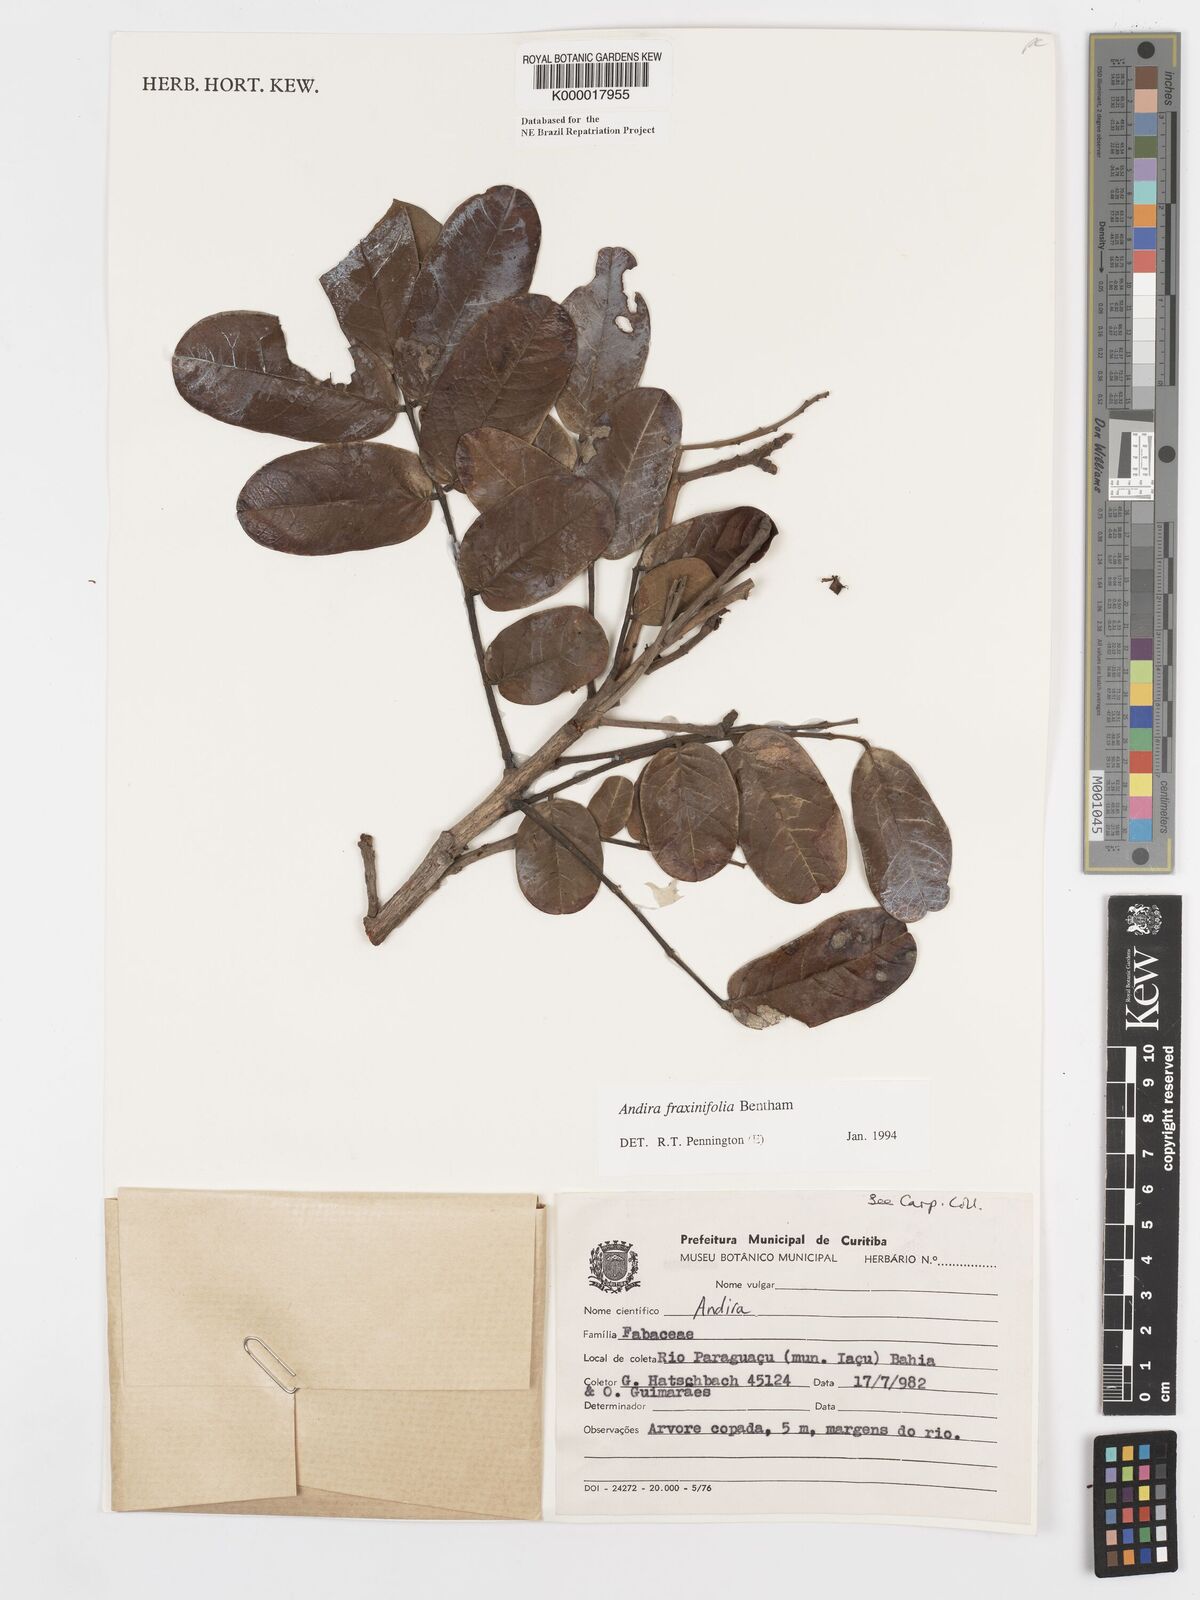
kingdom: Plantae
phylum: Tracheophyta
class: Magnoliopsida
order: Fabales
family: Fabaceae
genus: Andira
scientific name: Andira fraxinifolia
